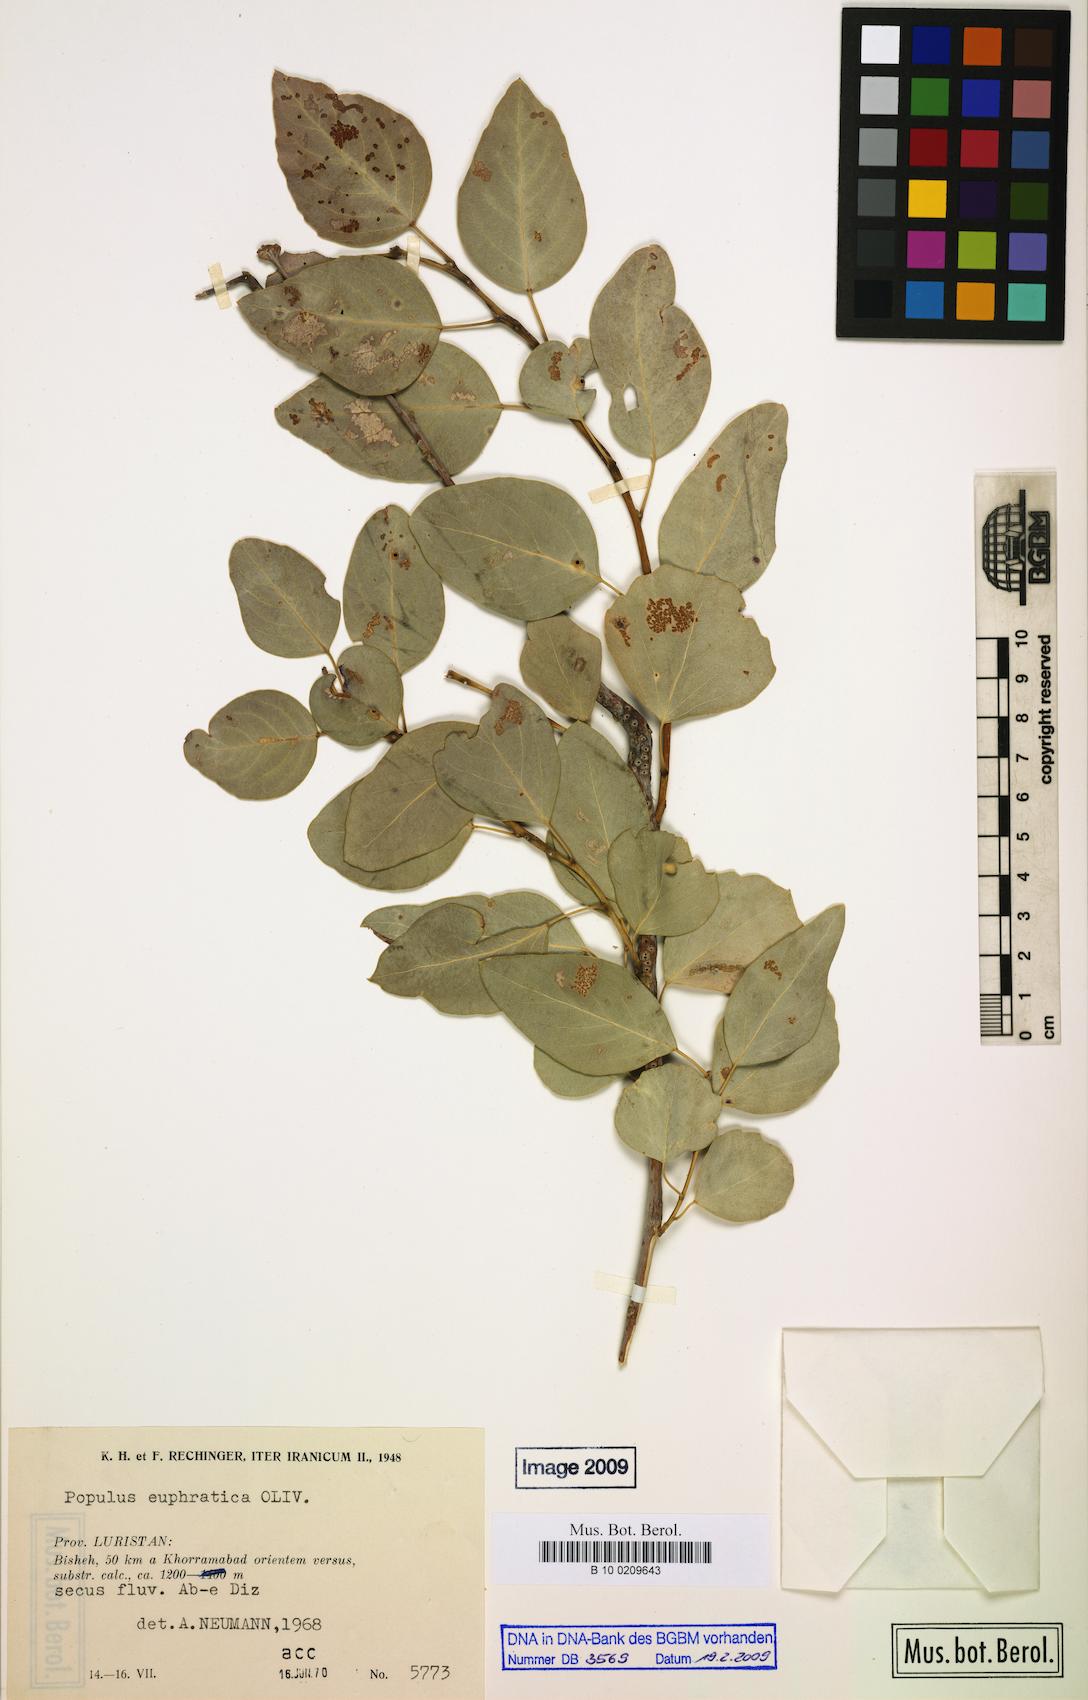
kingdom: Plantae
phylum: Tracheophyta
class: Magnoliopsida
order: Malpighiales
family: Salicaceae
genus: Populus
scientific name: Populus euphratica
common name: Euphrates poplar
